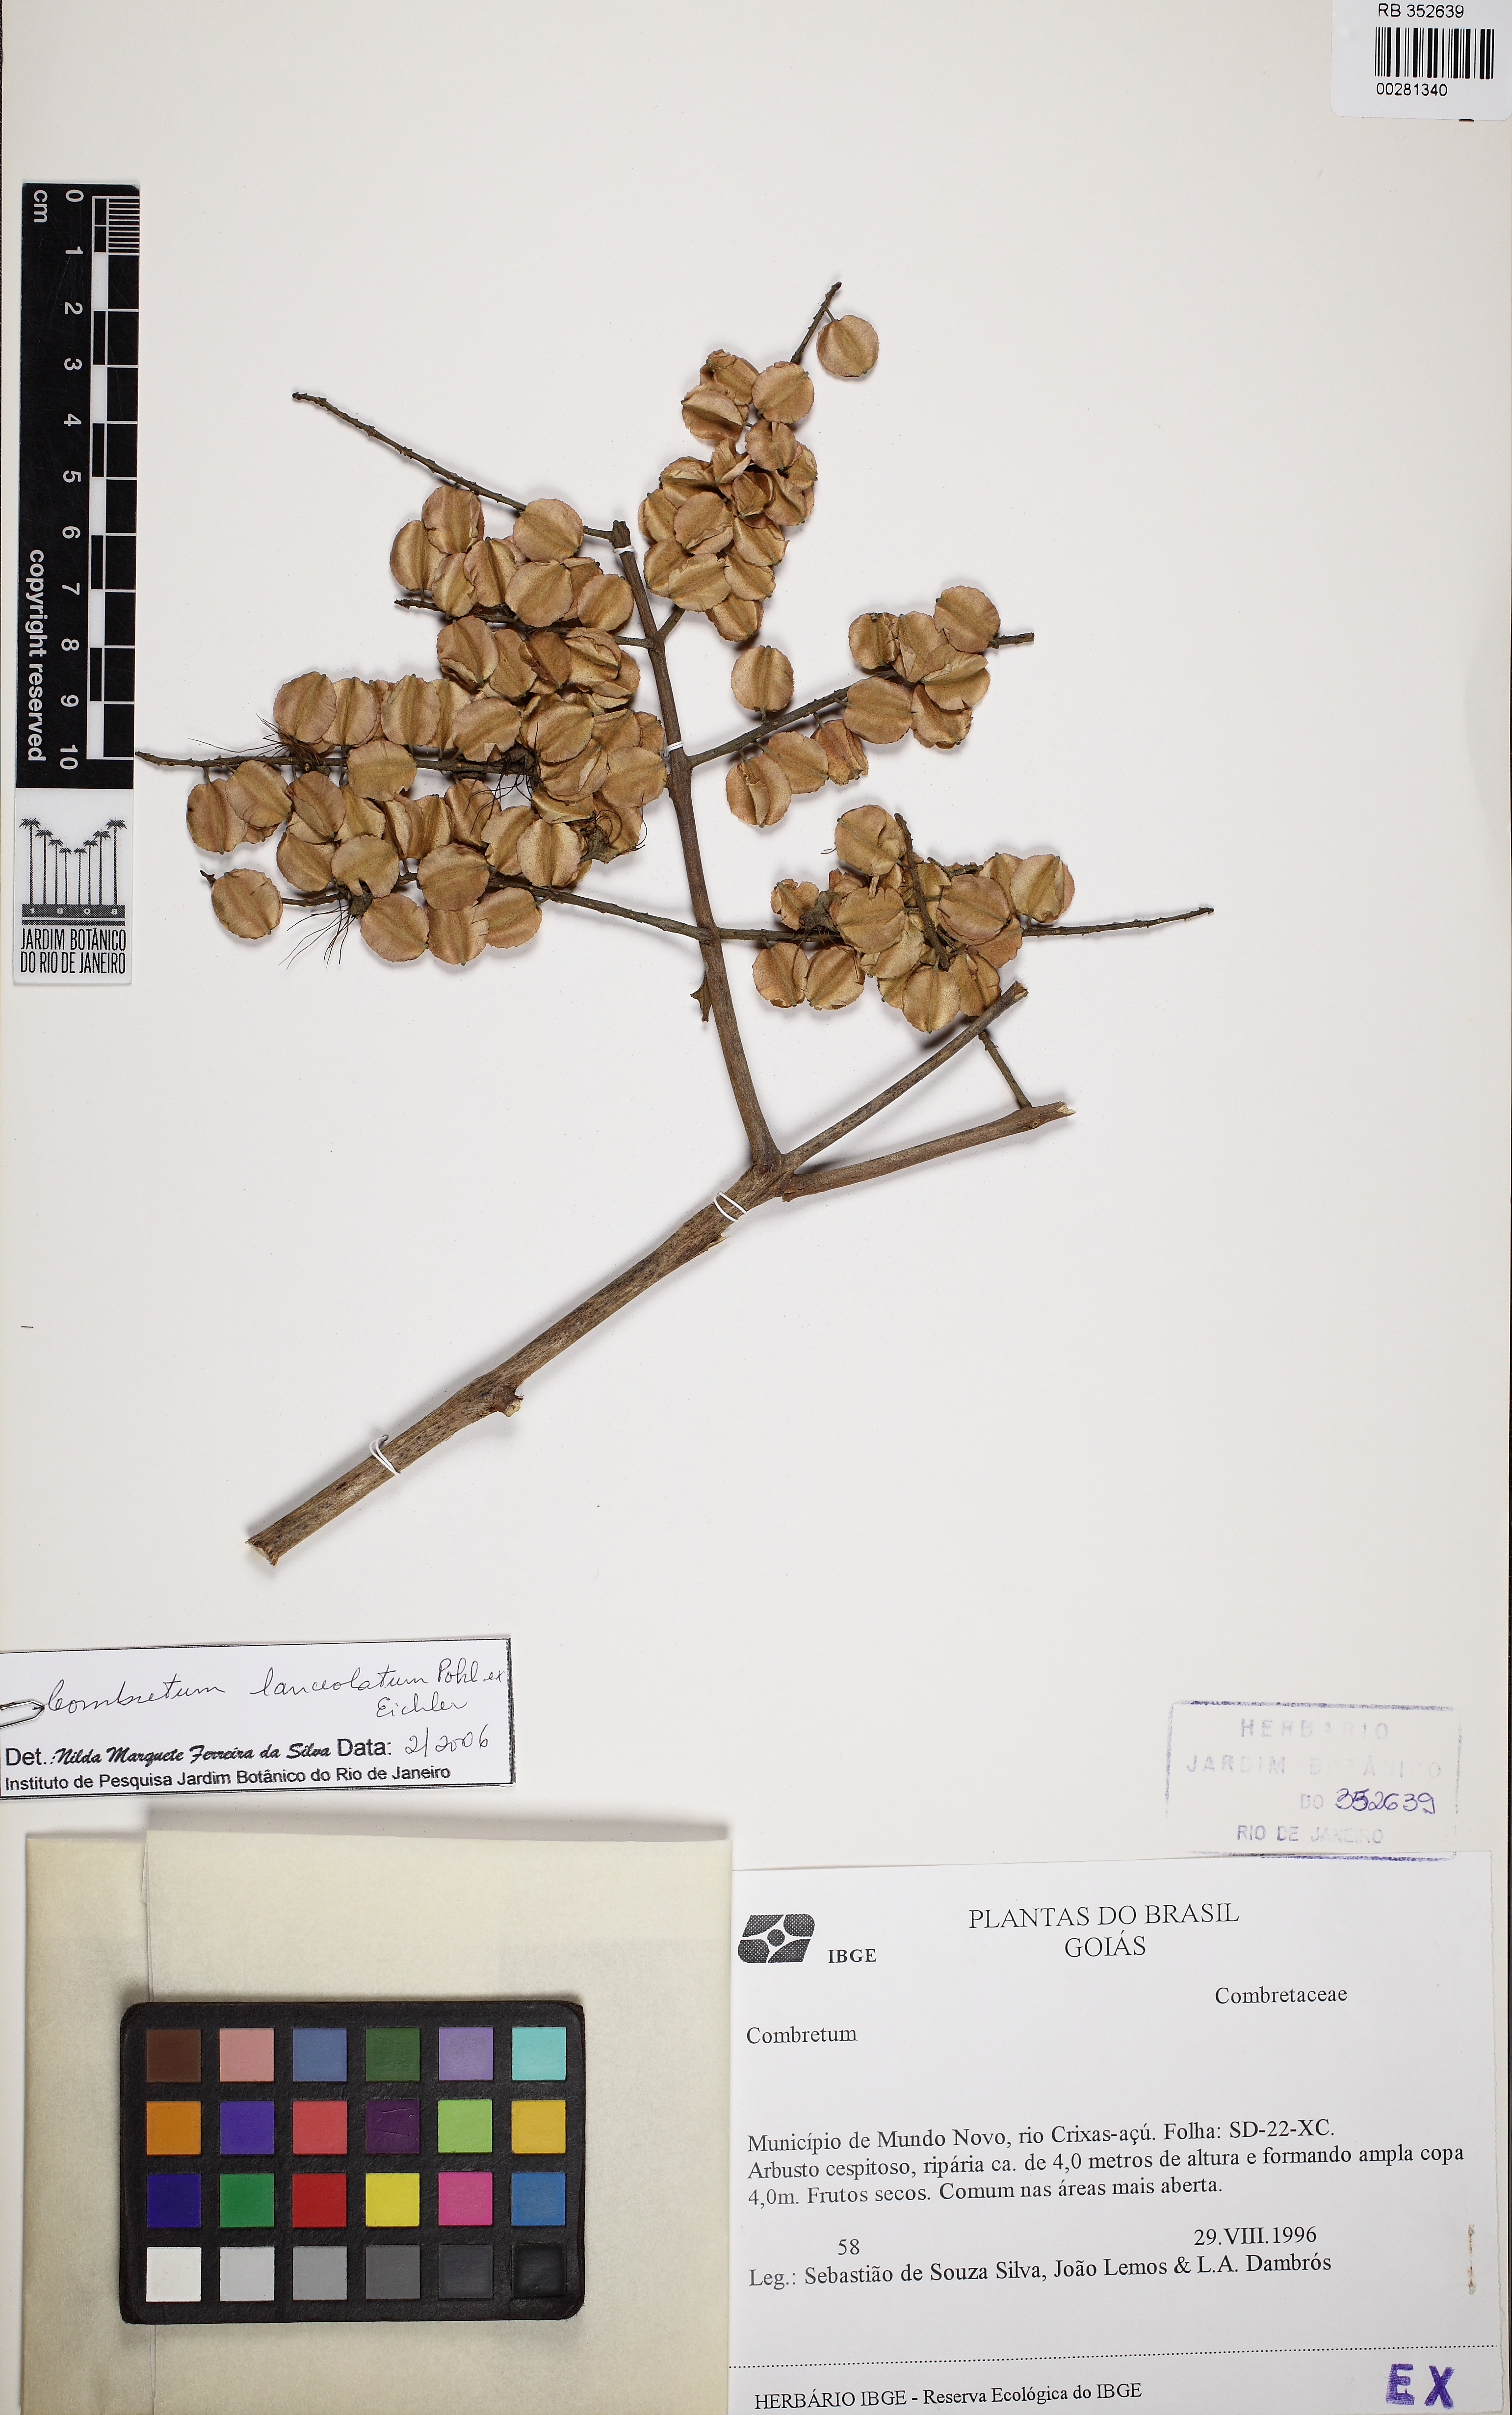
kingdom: Plantae
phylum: Tracheophyta
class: Magnoliopsida
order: Myrtales
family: Combretaceae
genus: Combretum
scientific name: Combretum lanceolatum
